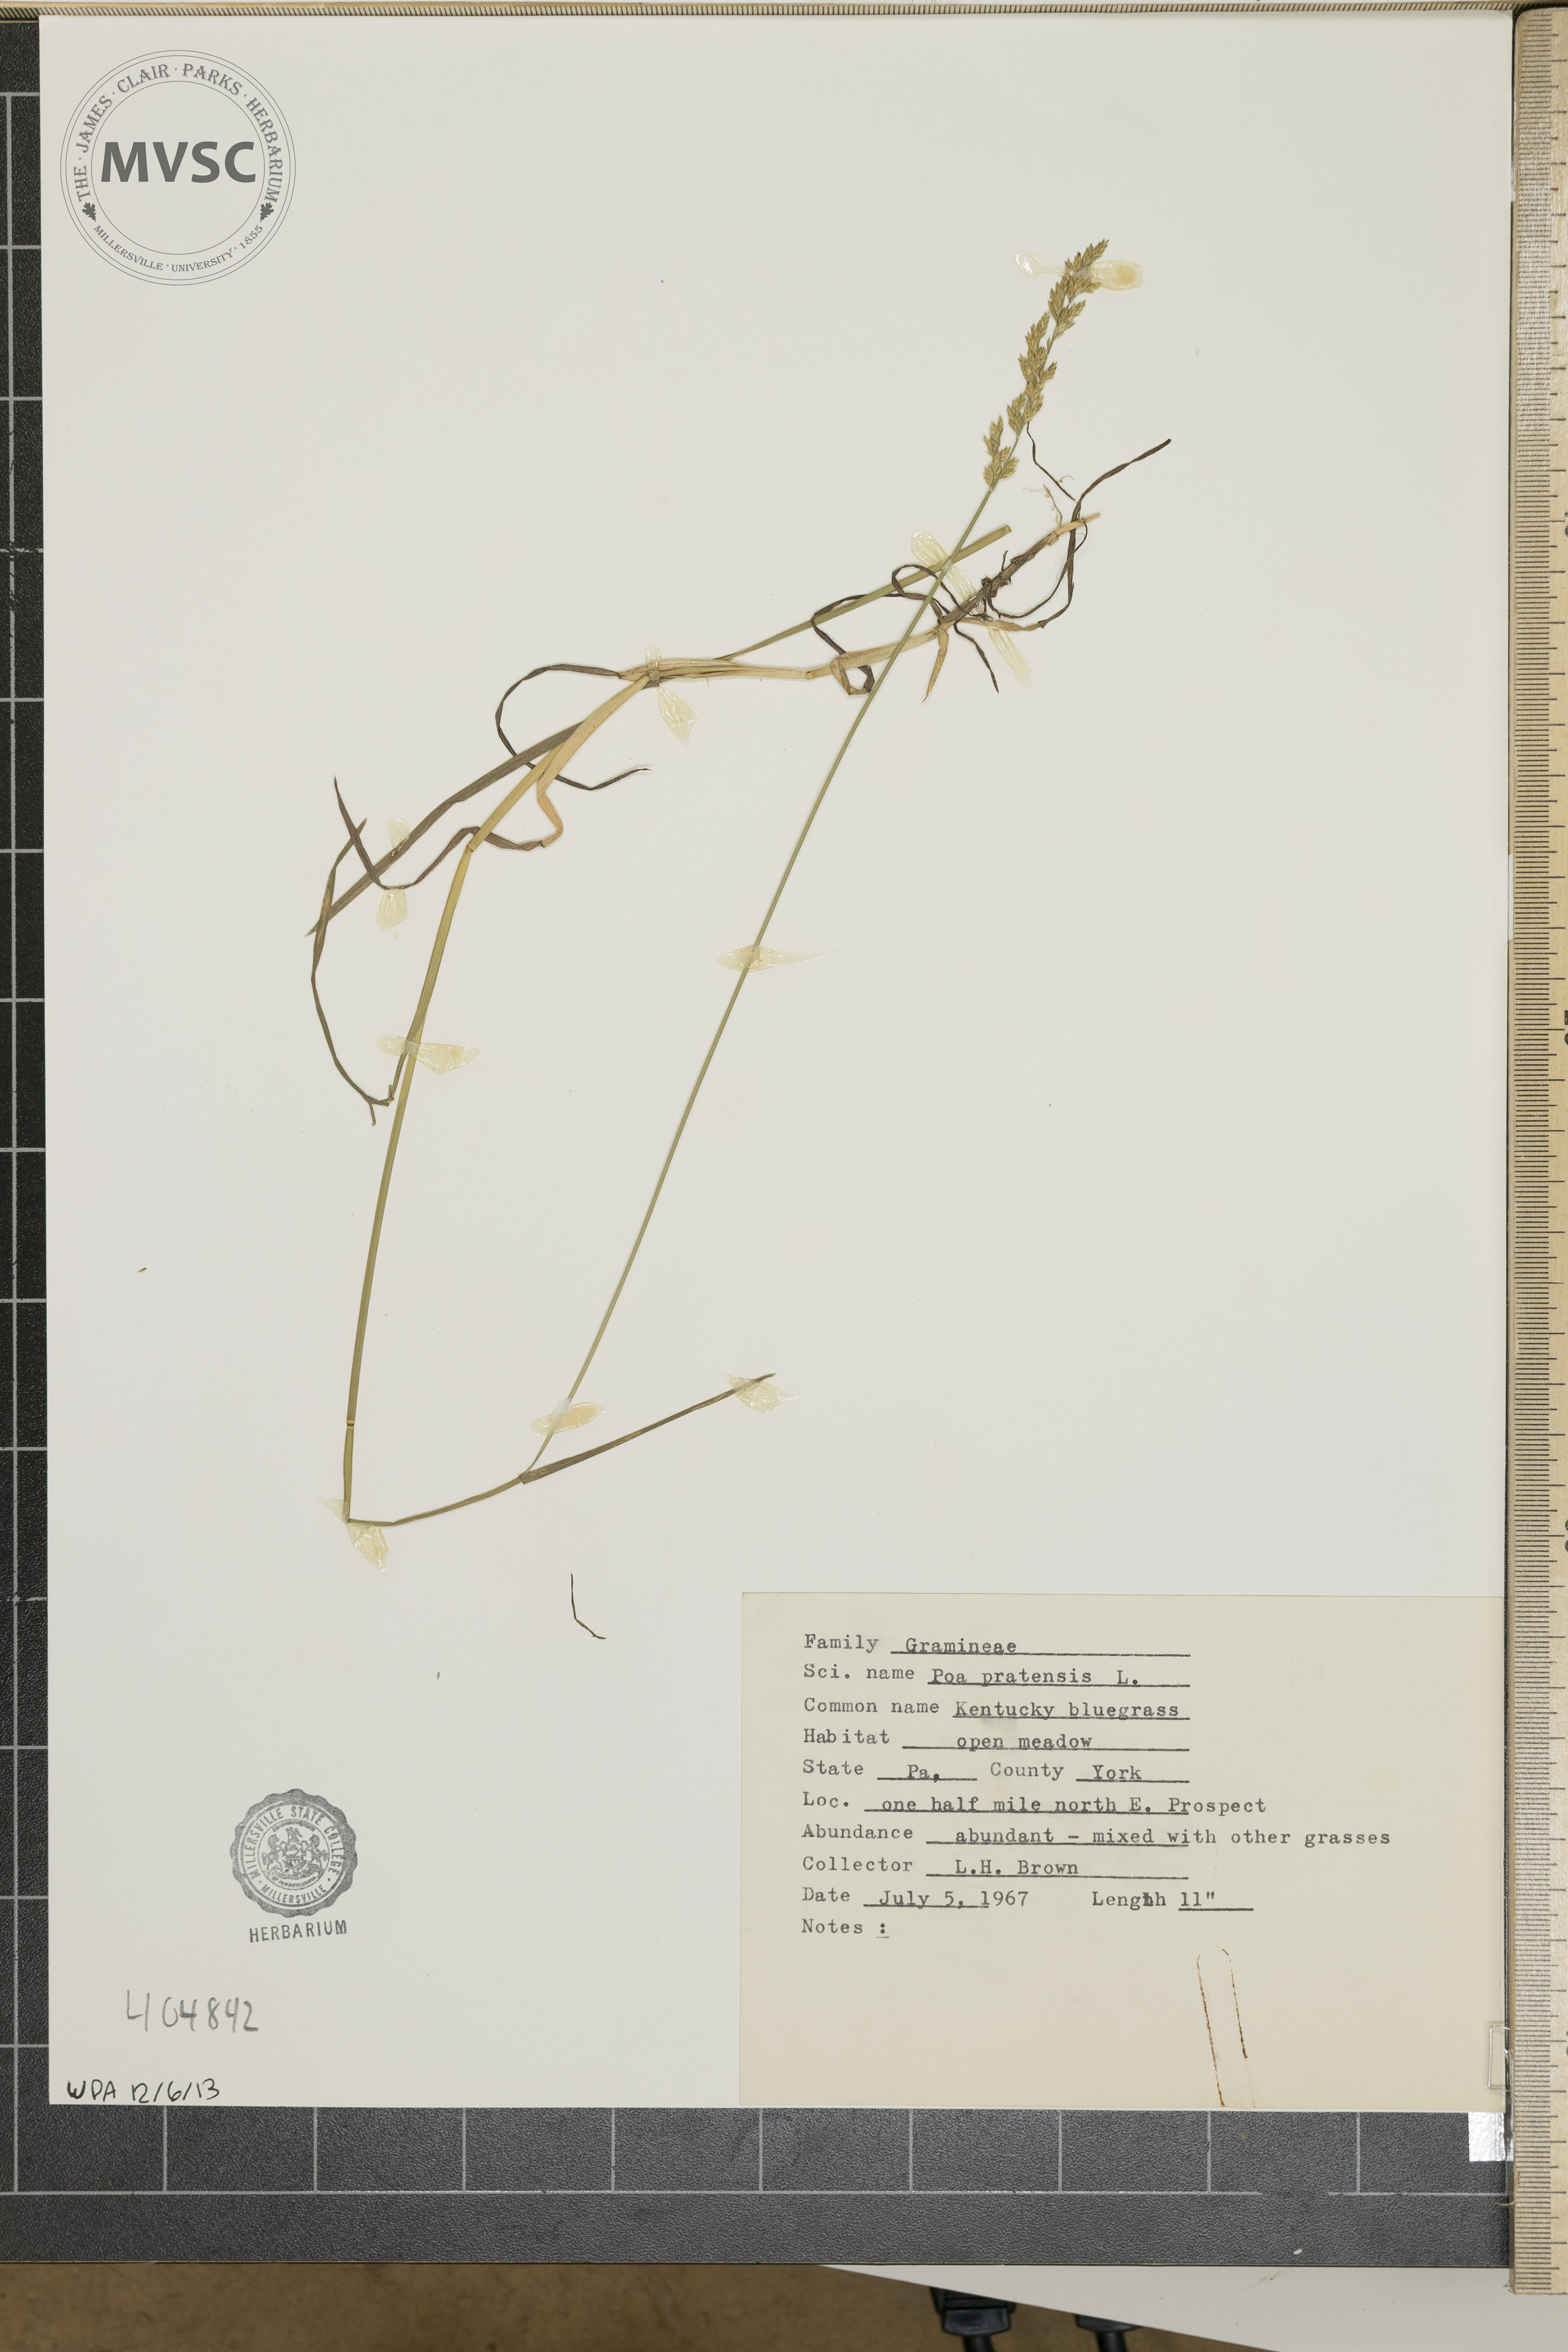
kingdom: Plantae
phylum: Tracheophyta
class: Liliopsida
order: Poales
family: Poaceae
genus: Poa
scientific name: Poa pratensis
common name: Kentucky bluegrass
